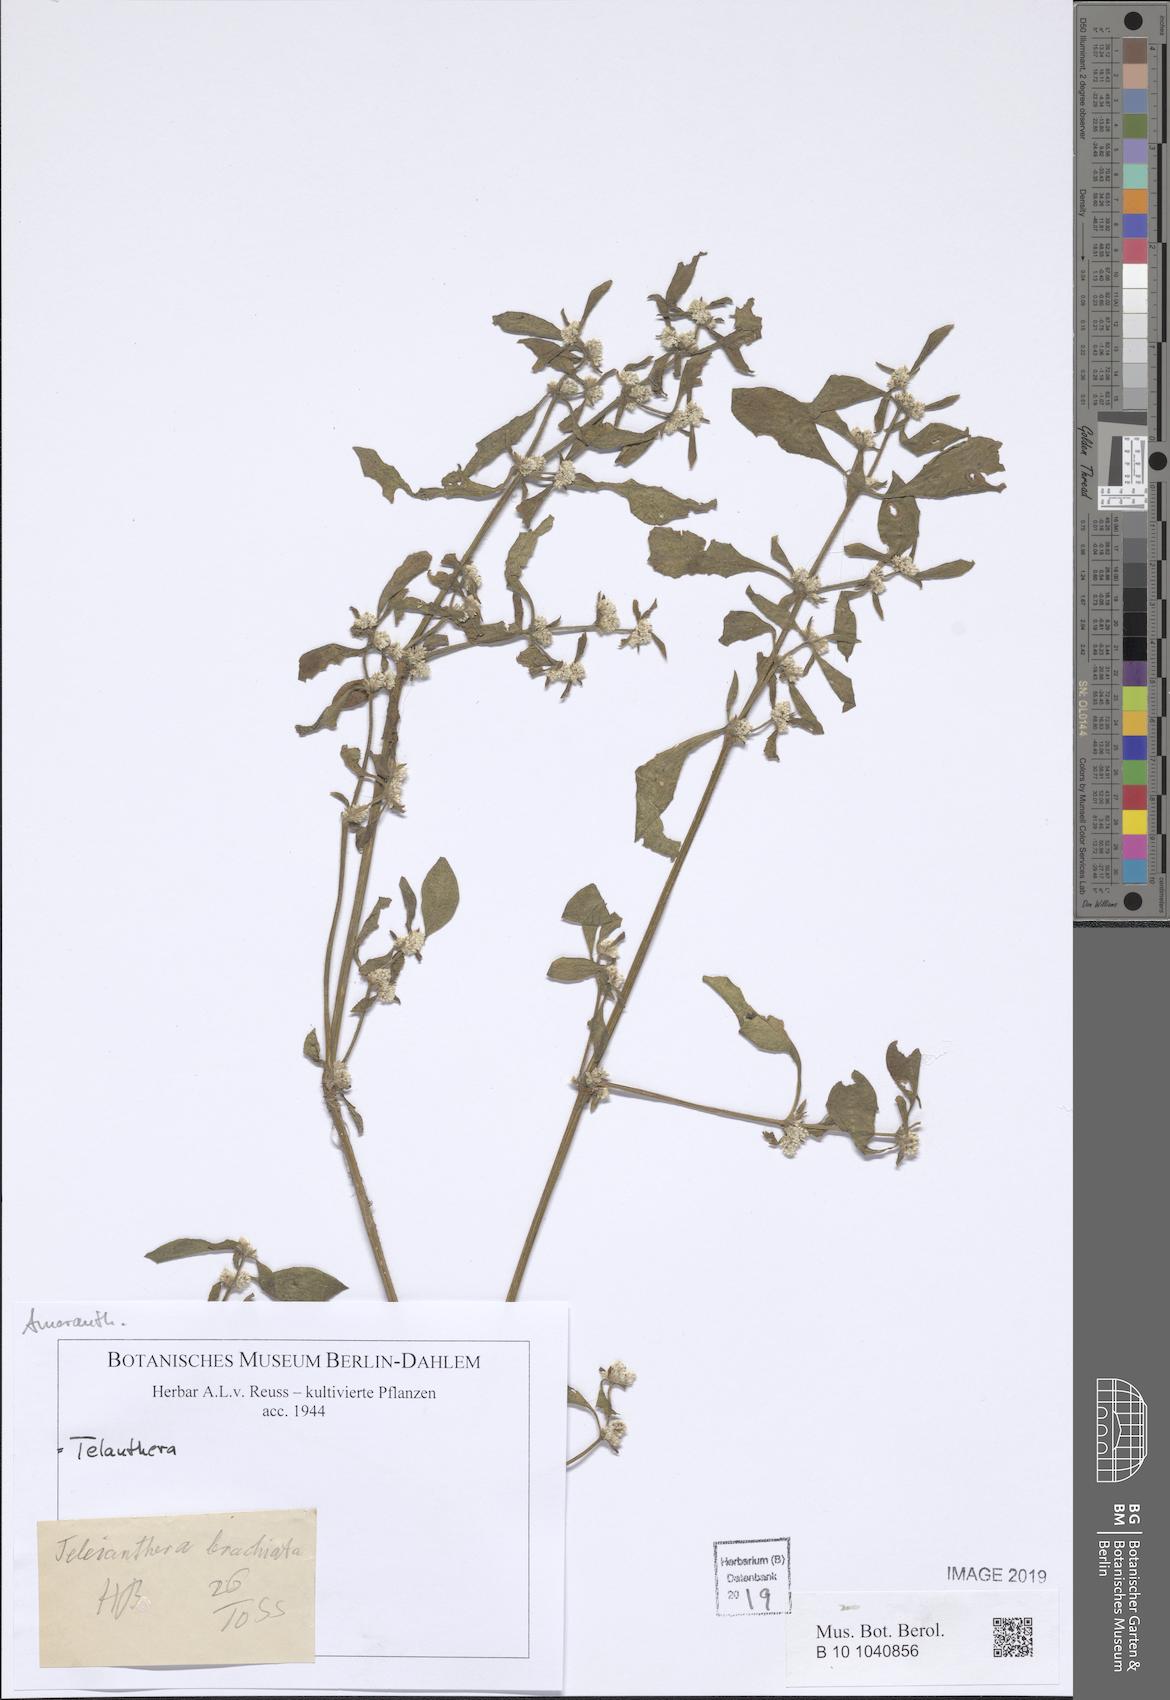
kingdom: Plantae
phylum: Tracheophyta
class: Magnoliopsida
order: Caryophyllales
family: Amaranthaceae
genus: Alternanthera
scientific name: Alternanthera
